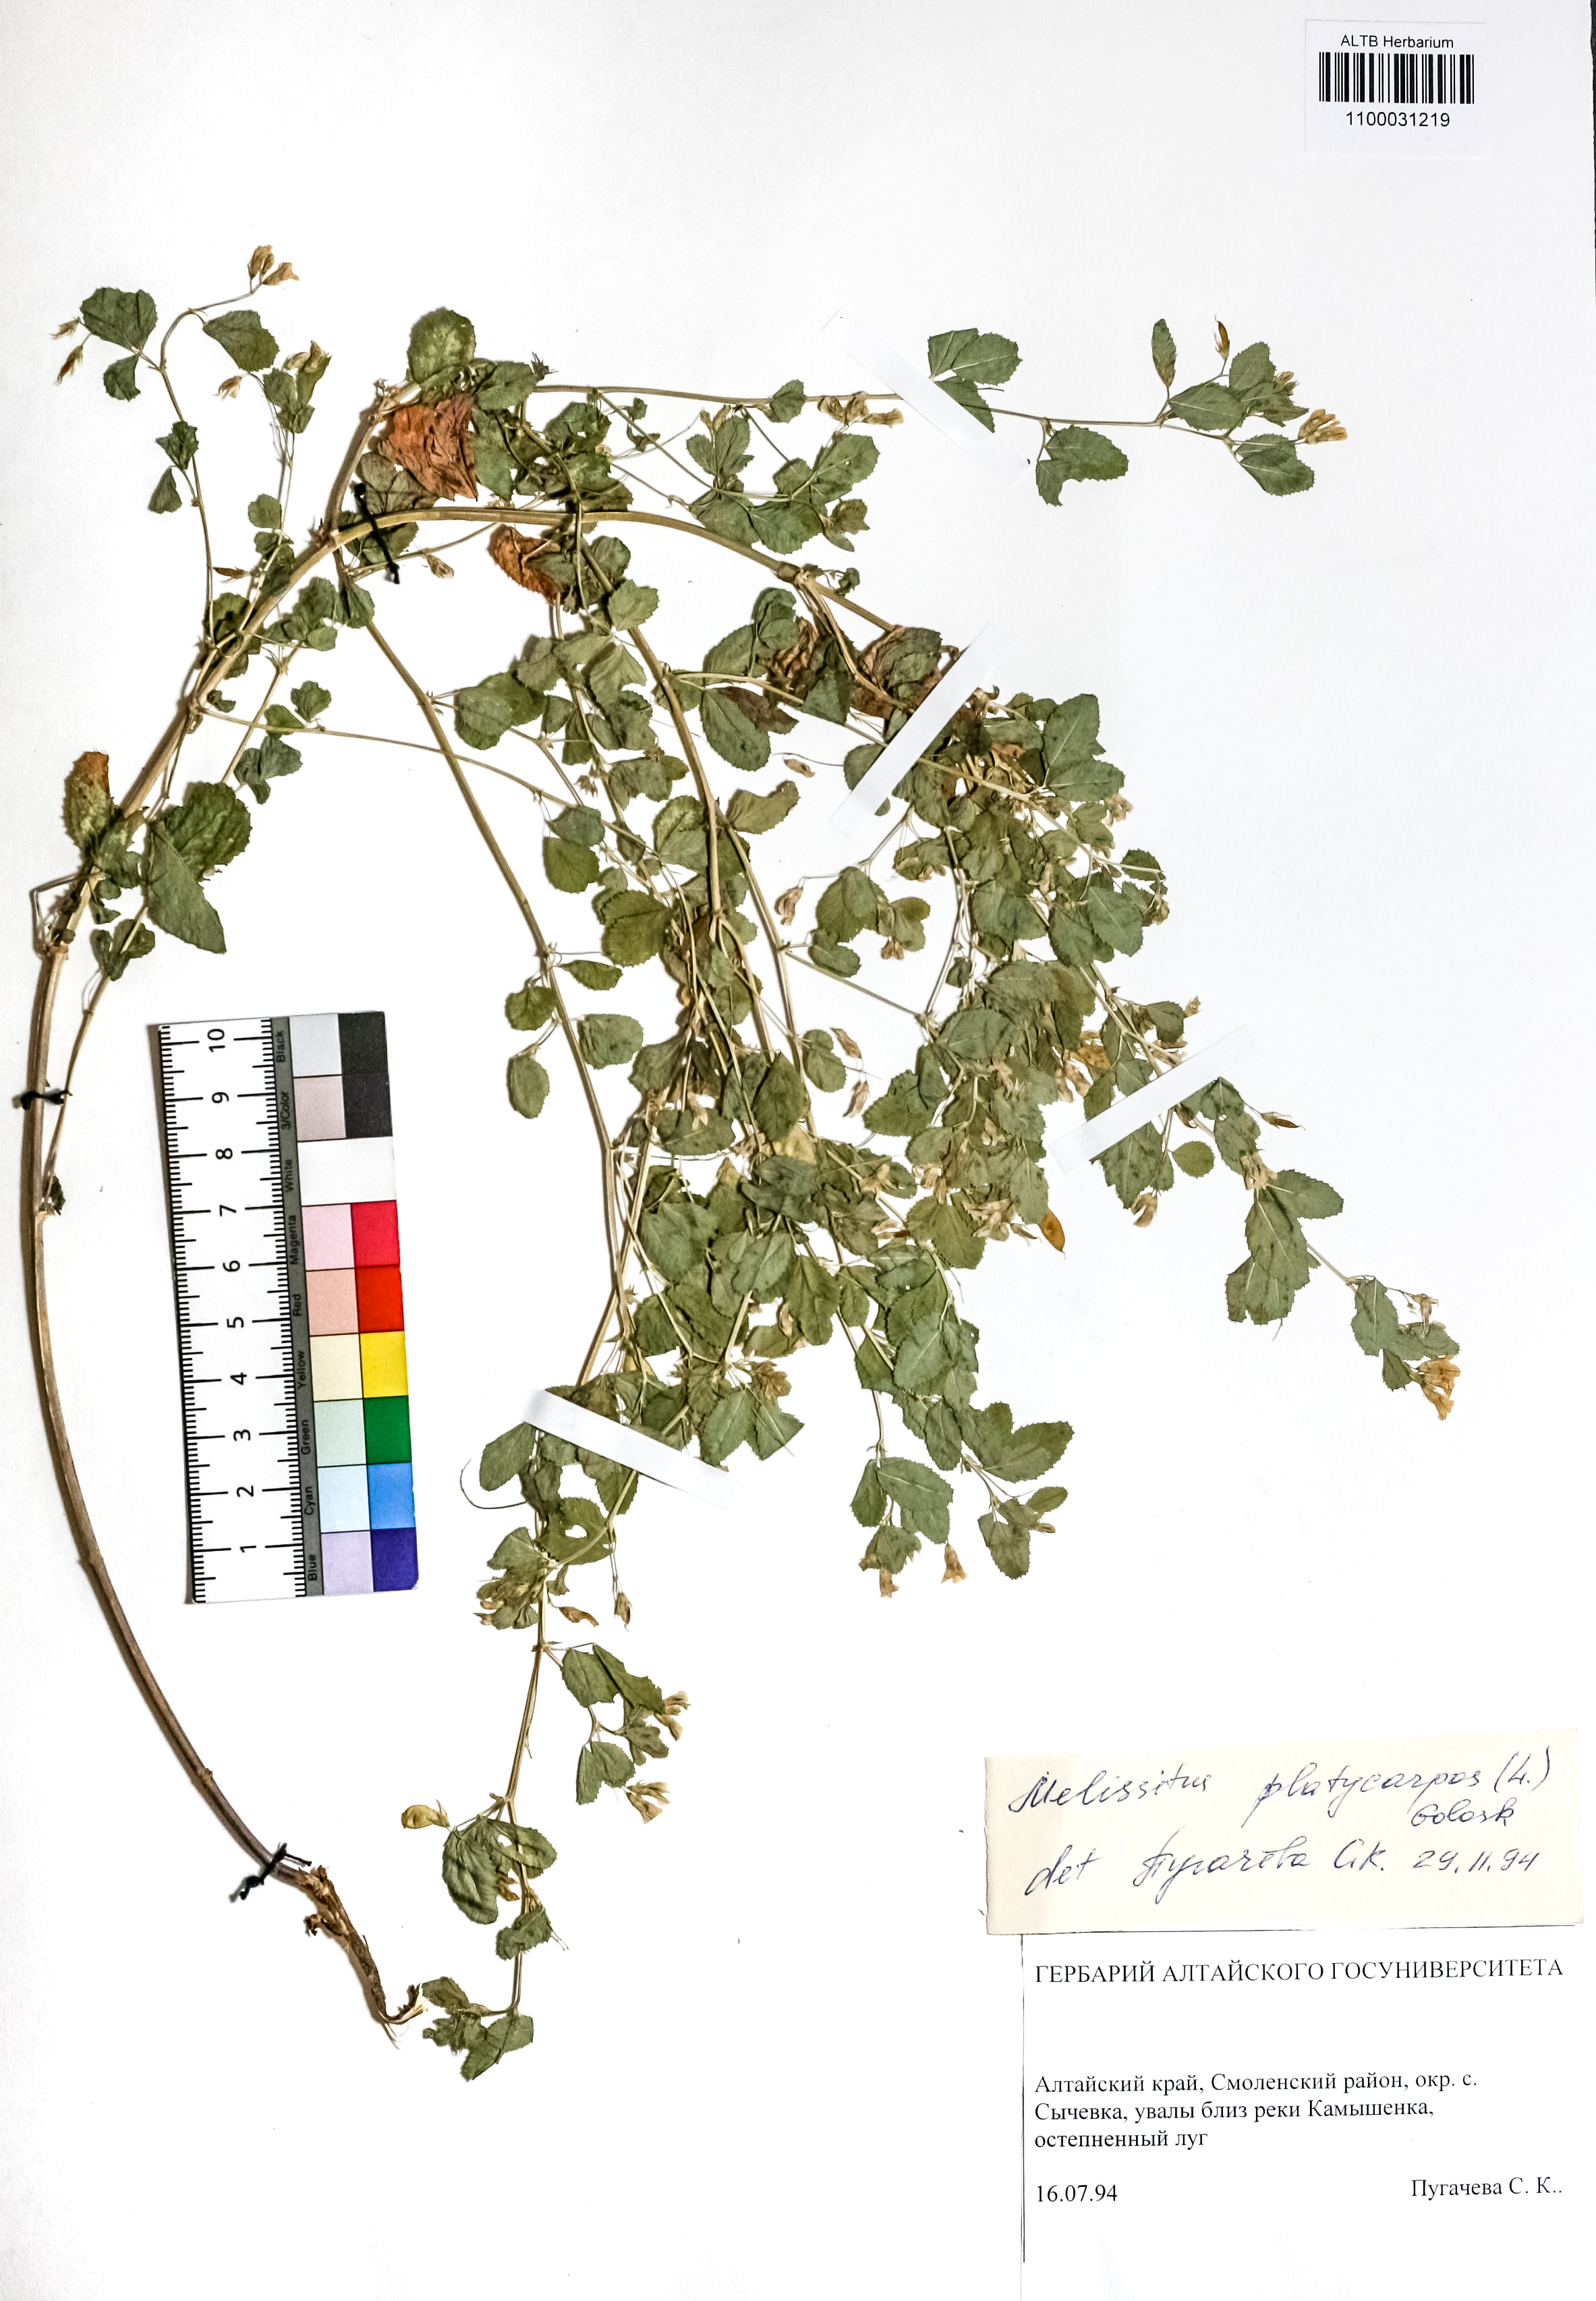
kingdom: Plantae
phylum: Tracheophyta
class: Magnoliopsida
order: Fabales
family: Fabaceae
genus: Medicago
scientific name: Medicago platycarpos
